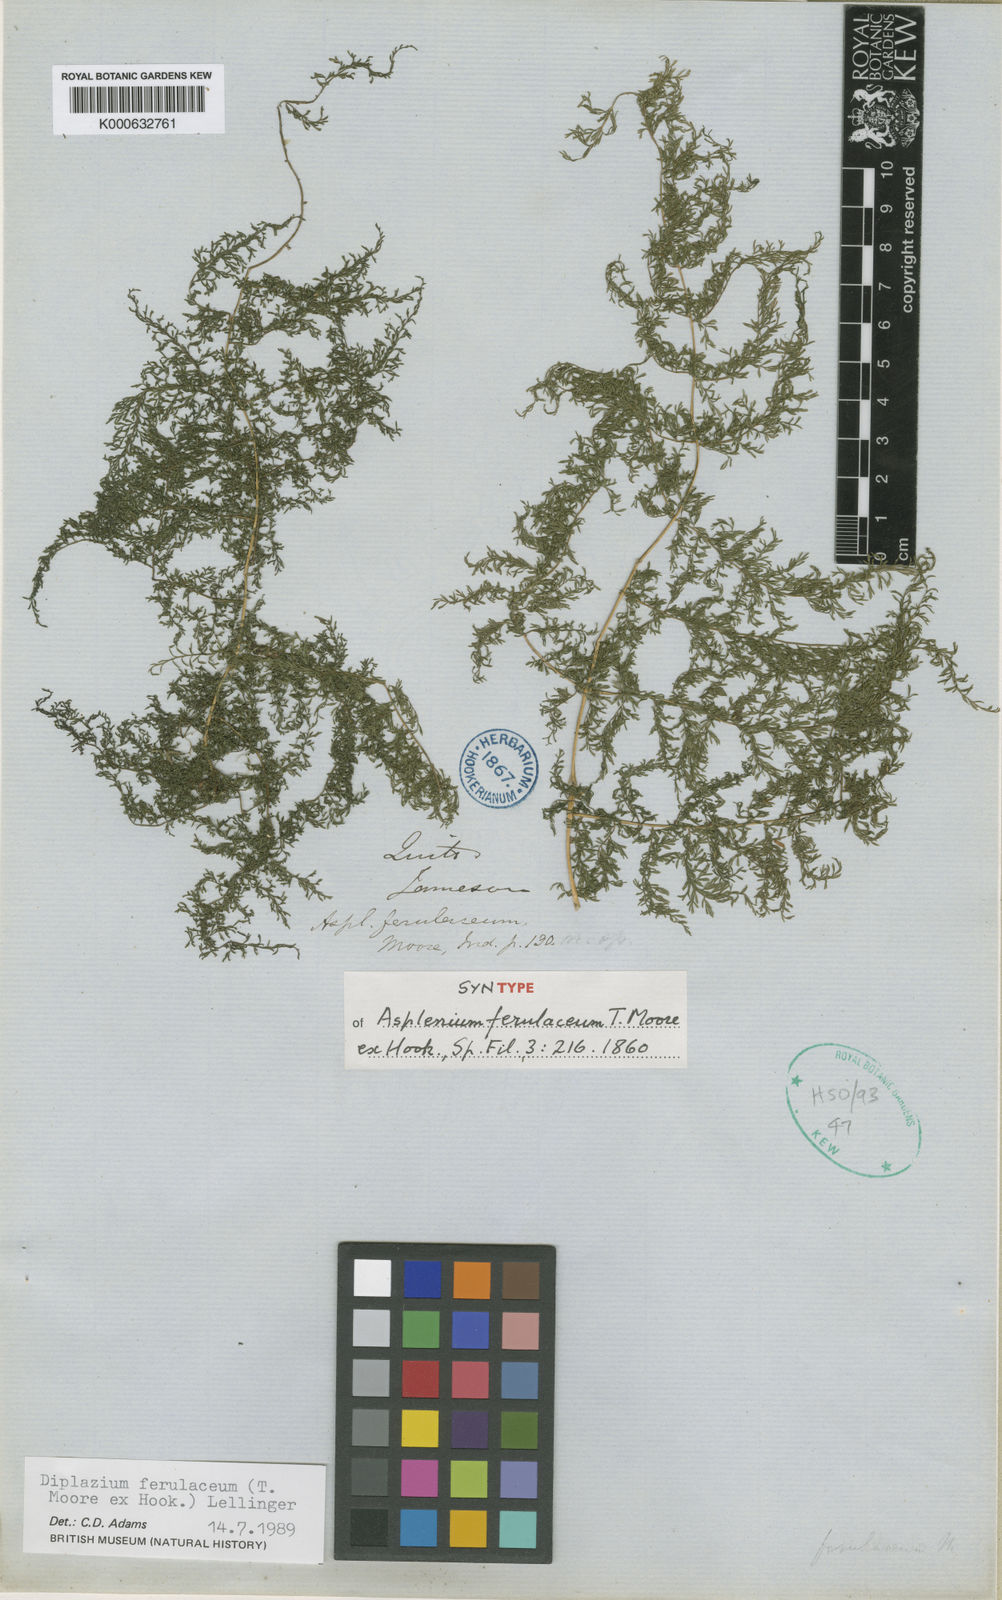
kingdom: Plantae
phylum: Tracheophyta
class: Polypodiopsida
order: Polypodiales
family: Athyriaceae
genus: Athyrium
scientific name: Athyrium ferulaceum
